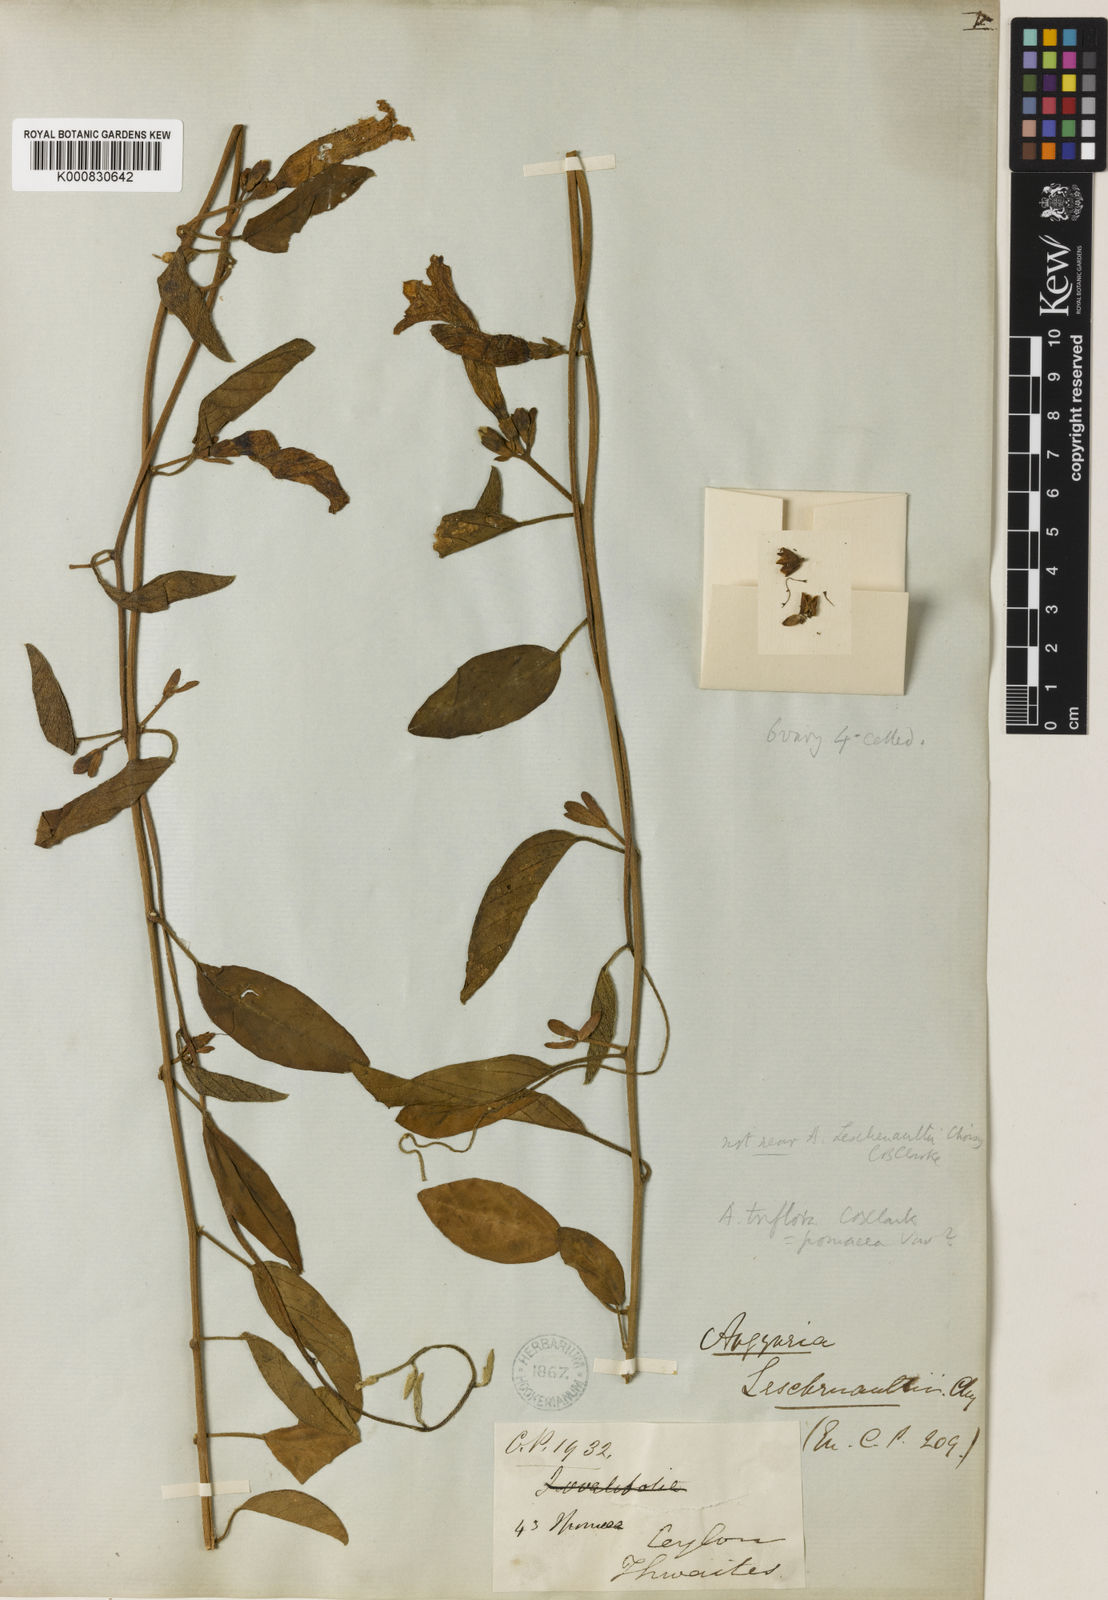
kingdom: Plantae
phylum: Tracheophyta
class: Magnoliopsida
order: Solanales
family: Convolvulaceae
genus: Argyreia
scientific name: Argyreia
